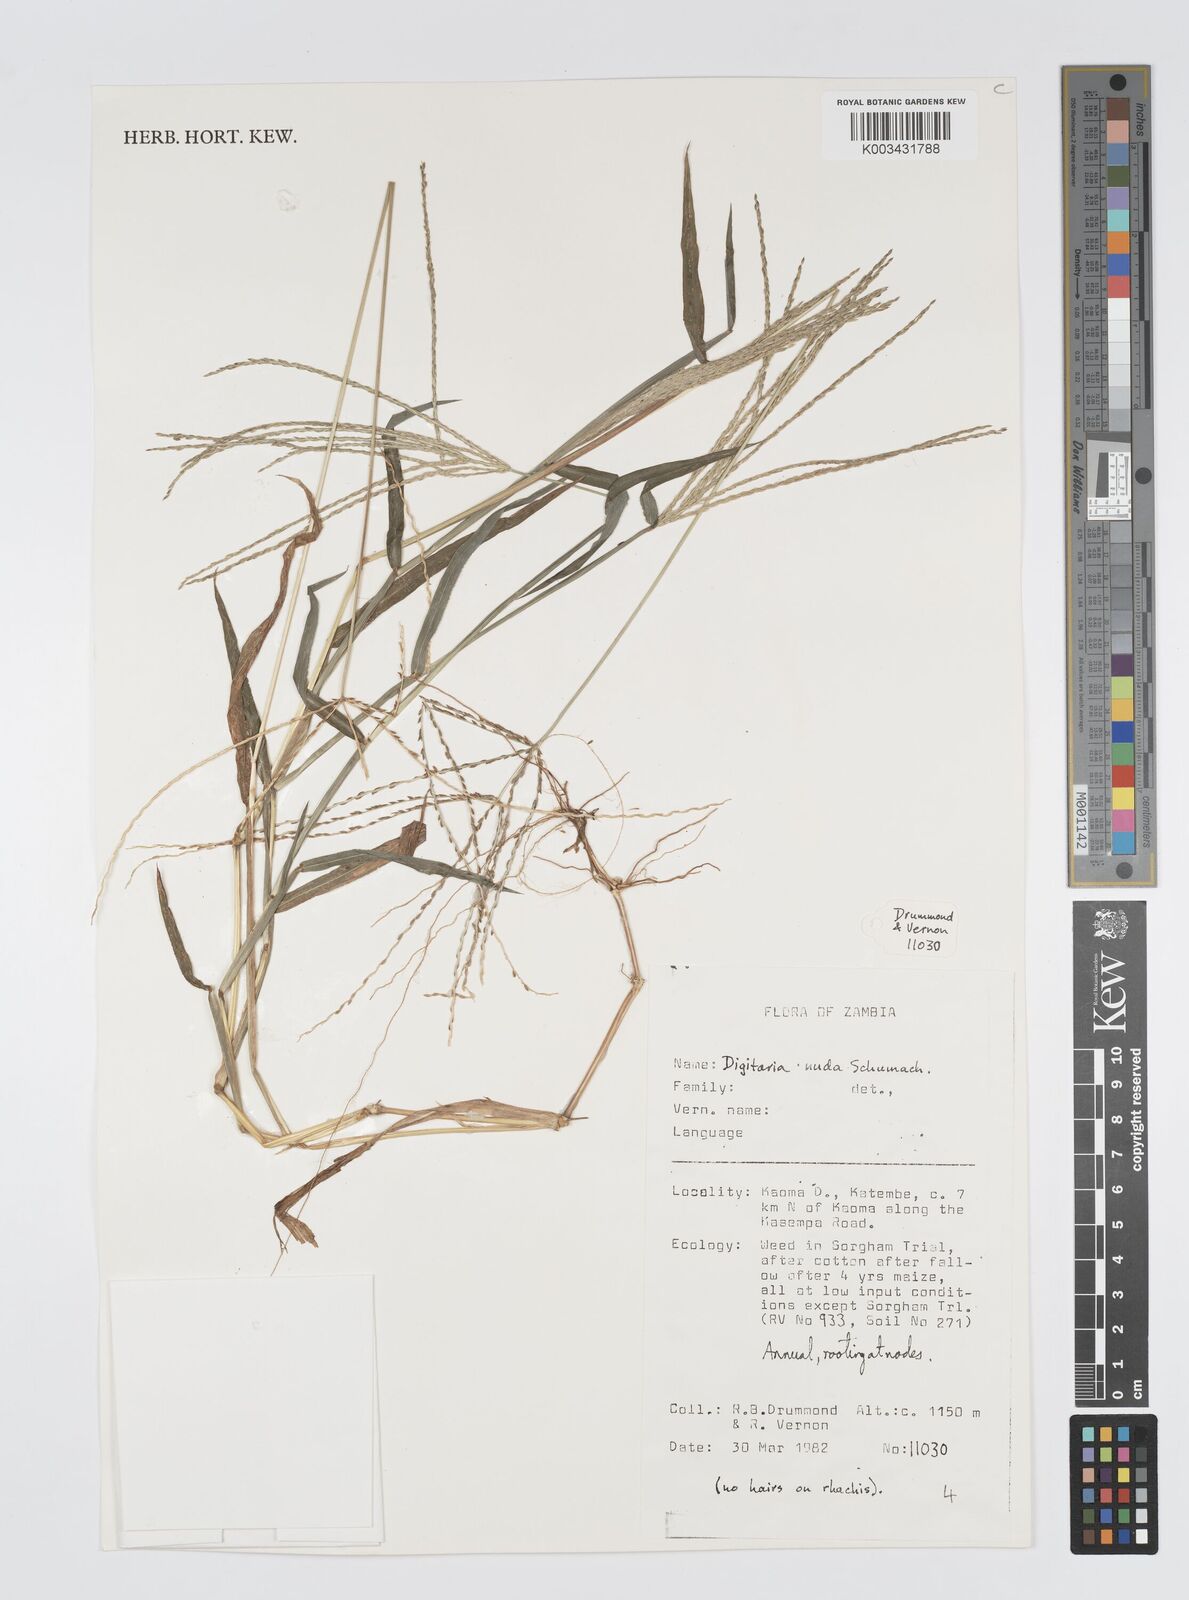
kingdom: Plantae
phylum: Tracheophyta
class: Liliopsida
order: Poales
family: Poaceae
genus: Digitaria
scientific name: Digitaria nuda
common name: Naked crabgrass
